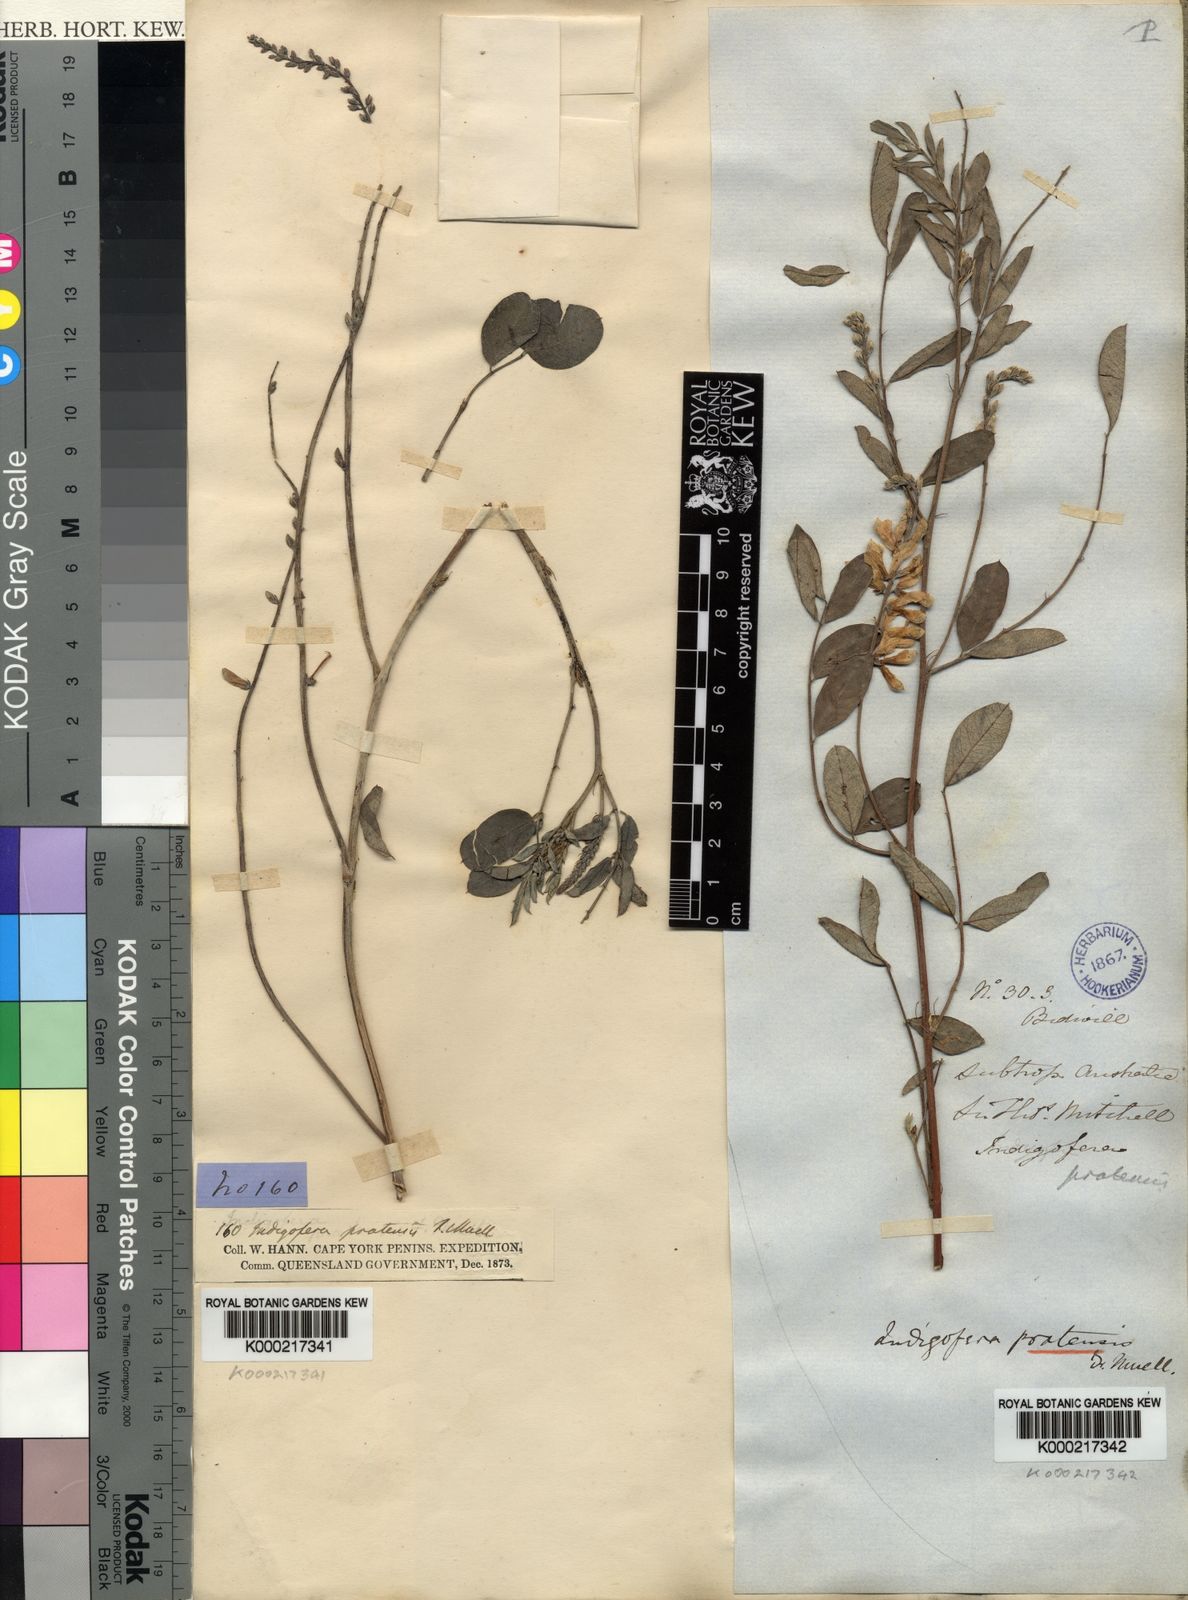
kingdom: Plantae
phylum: Tracheophyta
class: Magnoliopsida
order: Fabales
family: Fabaceae
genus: Indigofera
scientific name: Indigofera pratensis
